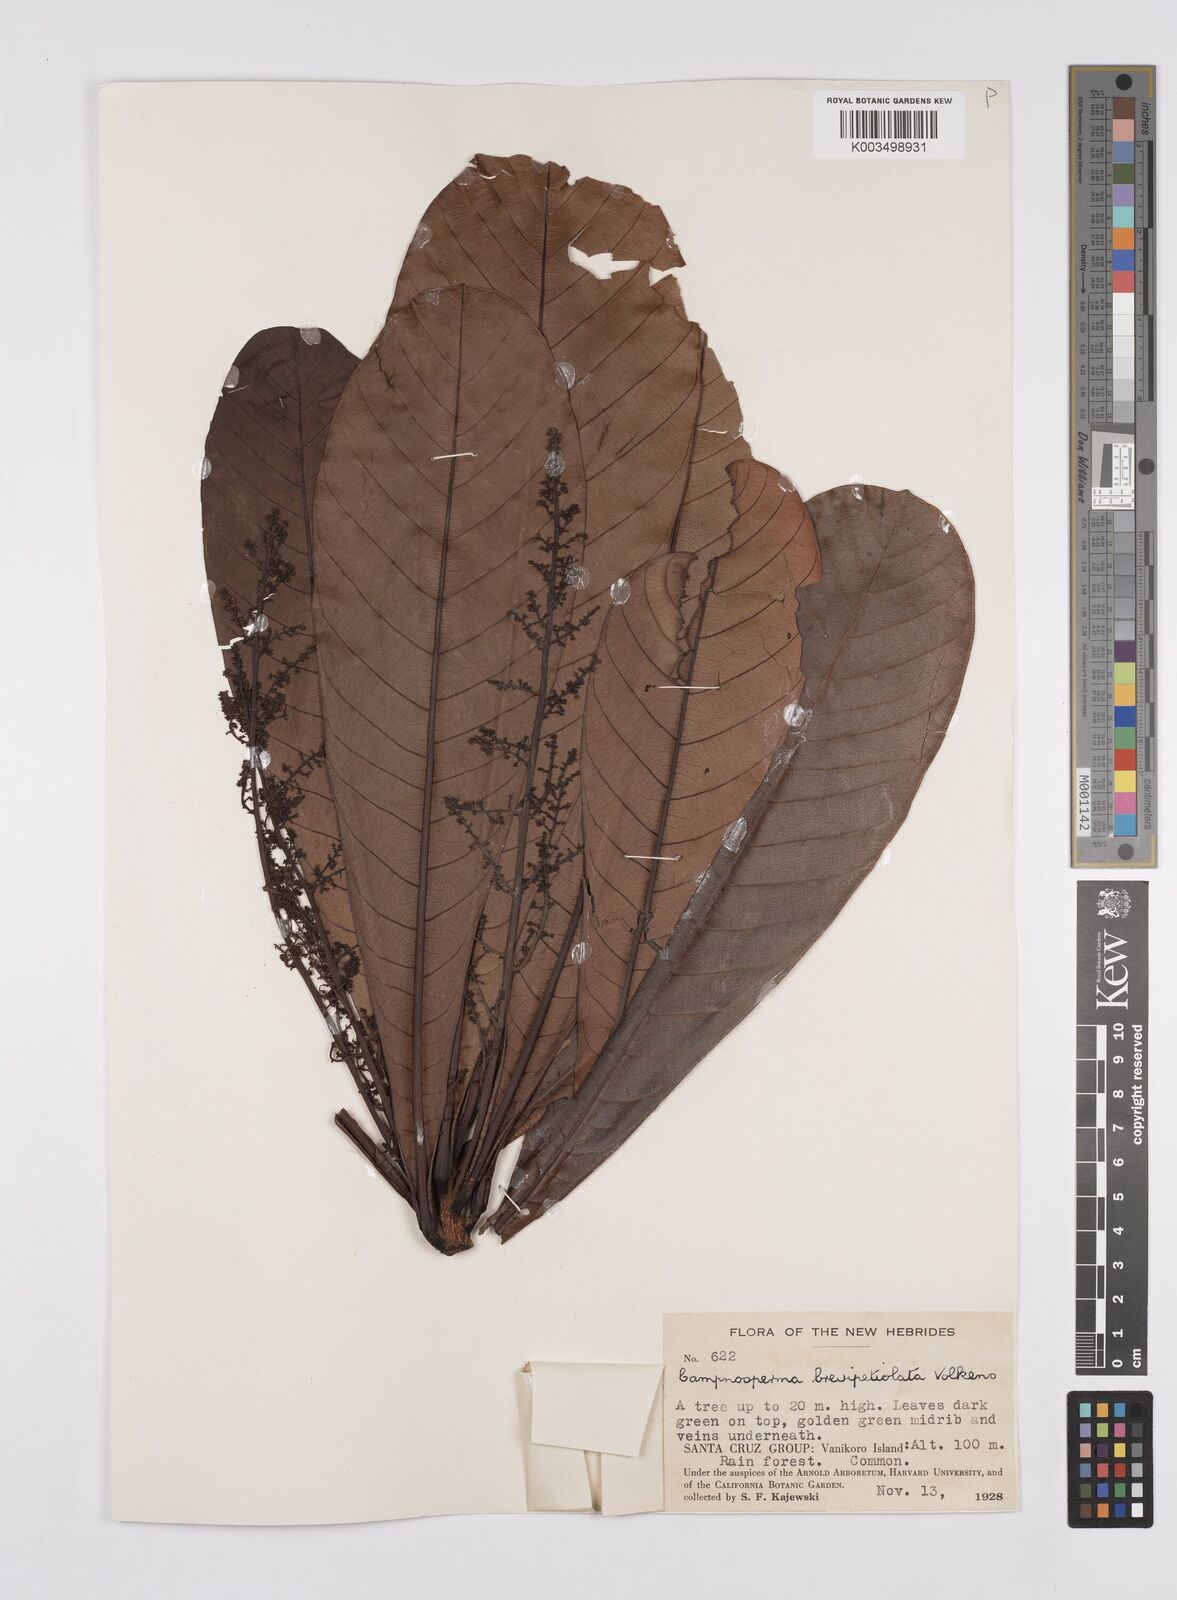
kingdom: Plantae
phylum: Tracheophyta
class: Magnoliopsida
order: Sapindales
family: Anacardiaceae
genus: Campnosperma
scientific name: Campnosperma brevipetiolatum
